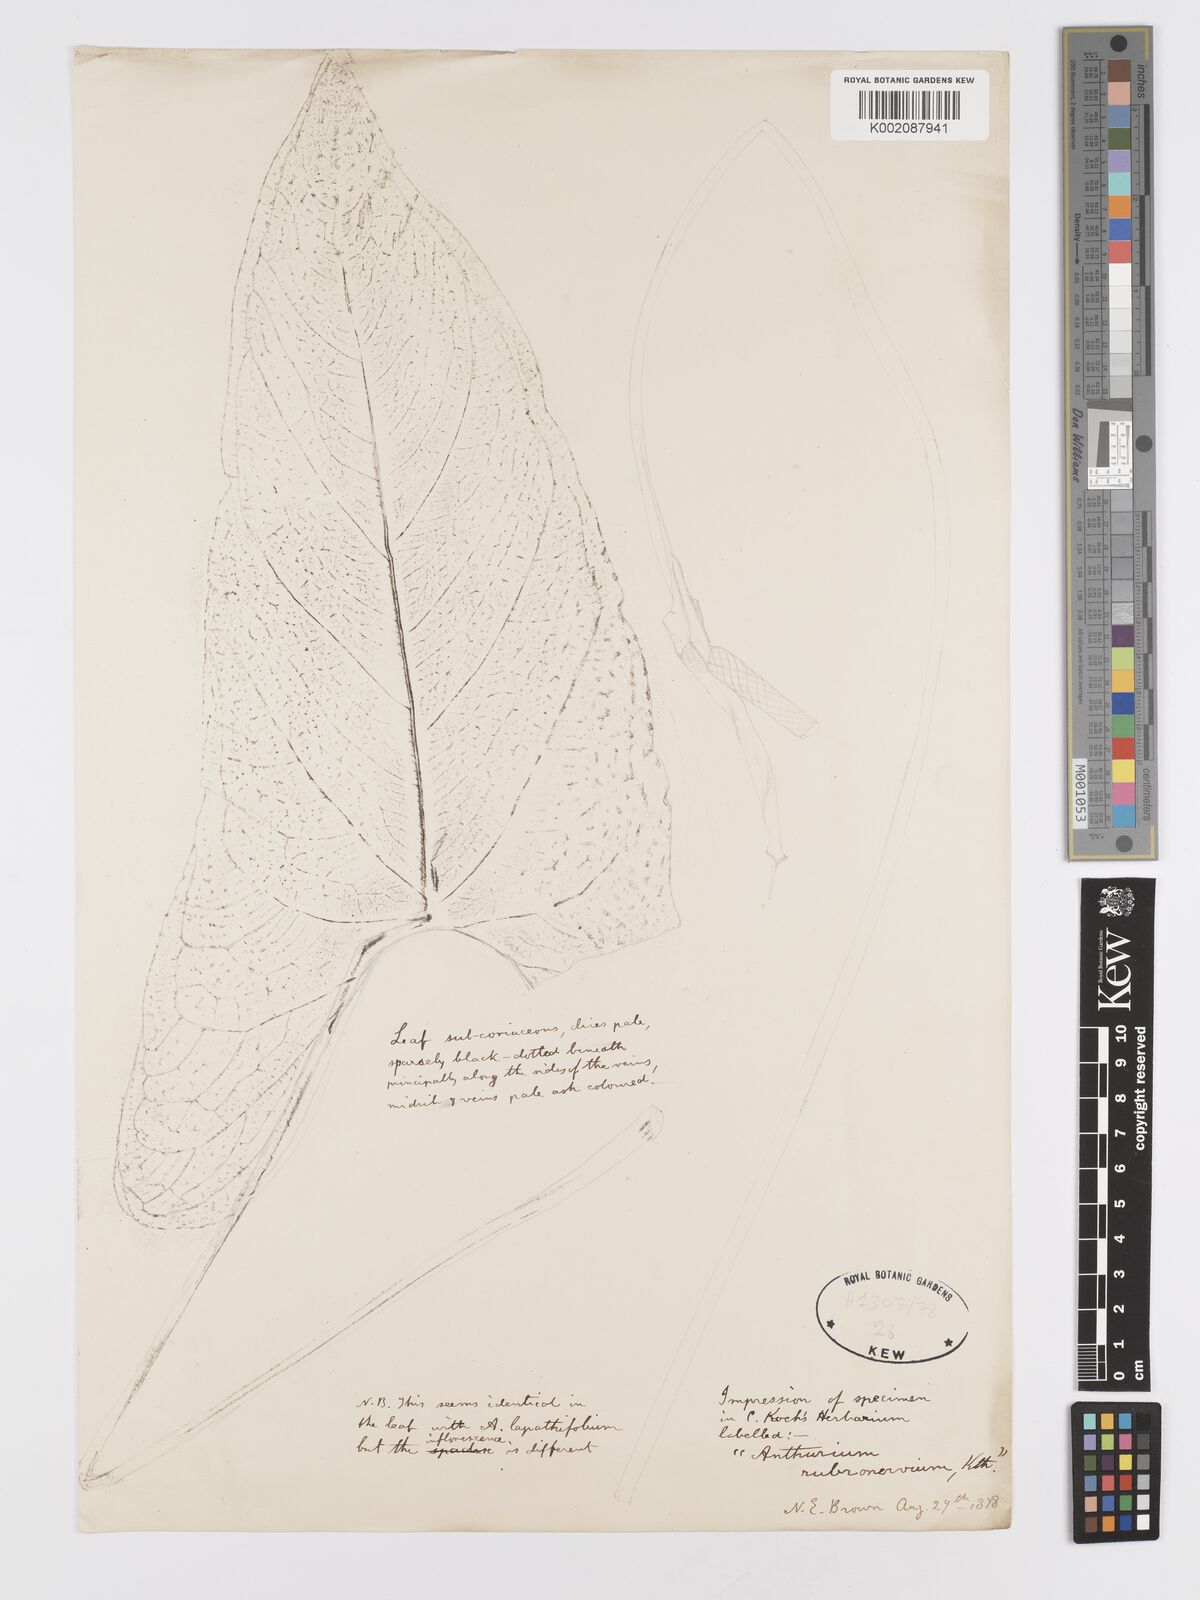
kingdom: Plantae
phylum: Tracheophyta
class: Liliopsida
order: Alismatales
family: Araceae
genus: Anthurium
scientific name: Anthurium sagittatum
